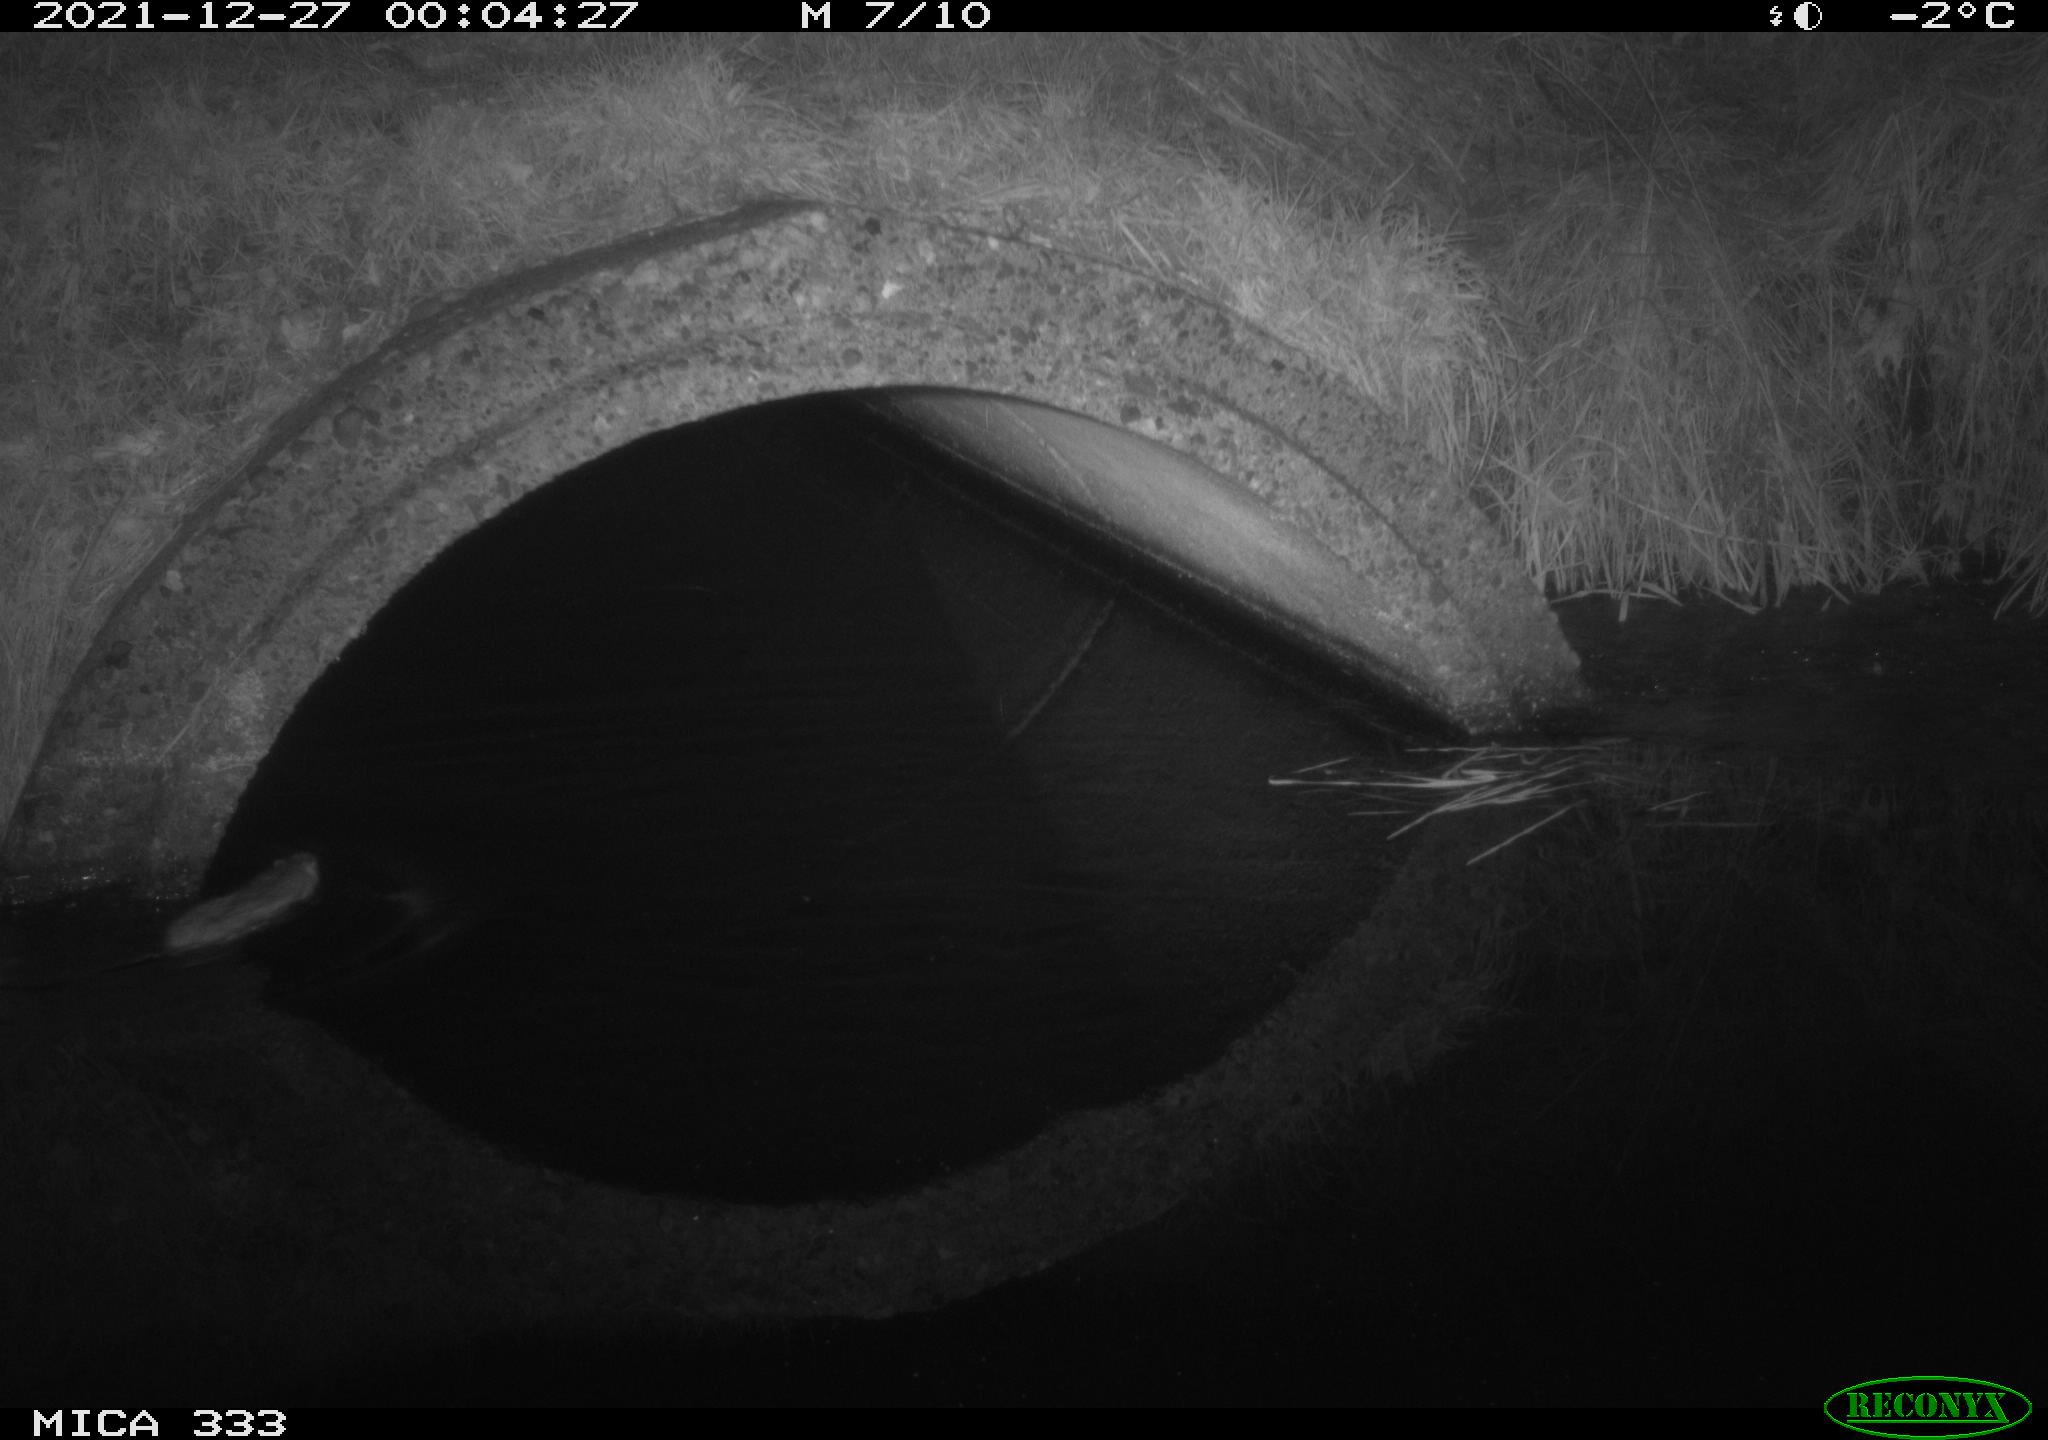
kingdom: Animalia
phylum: Chordata
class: Mammalia
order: Rodentia
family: Muridae
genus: Rattus
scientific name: Rattus norvegicus
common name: Brown rat
